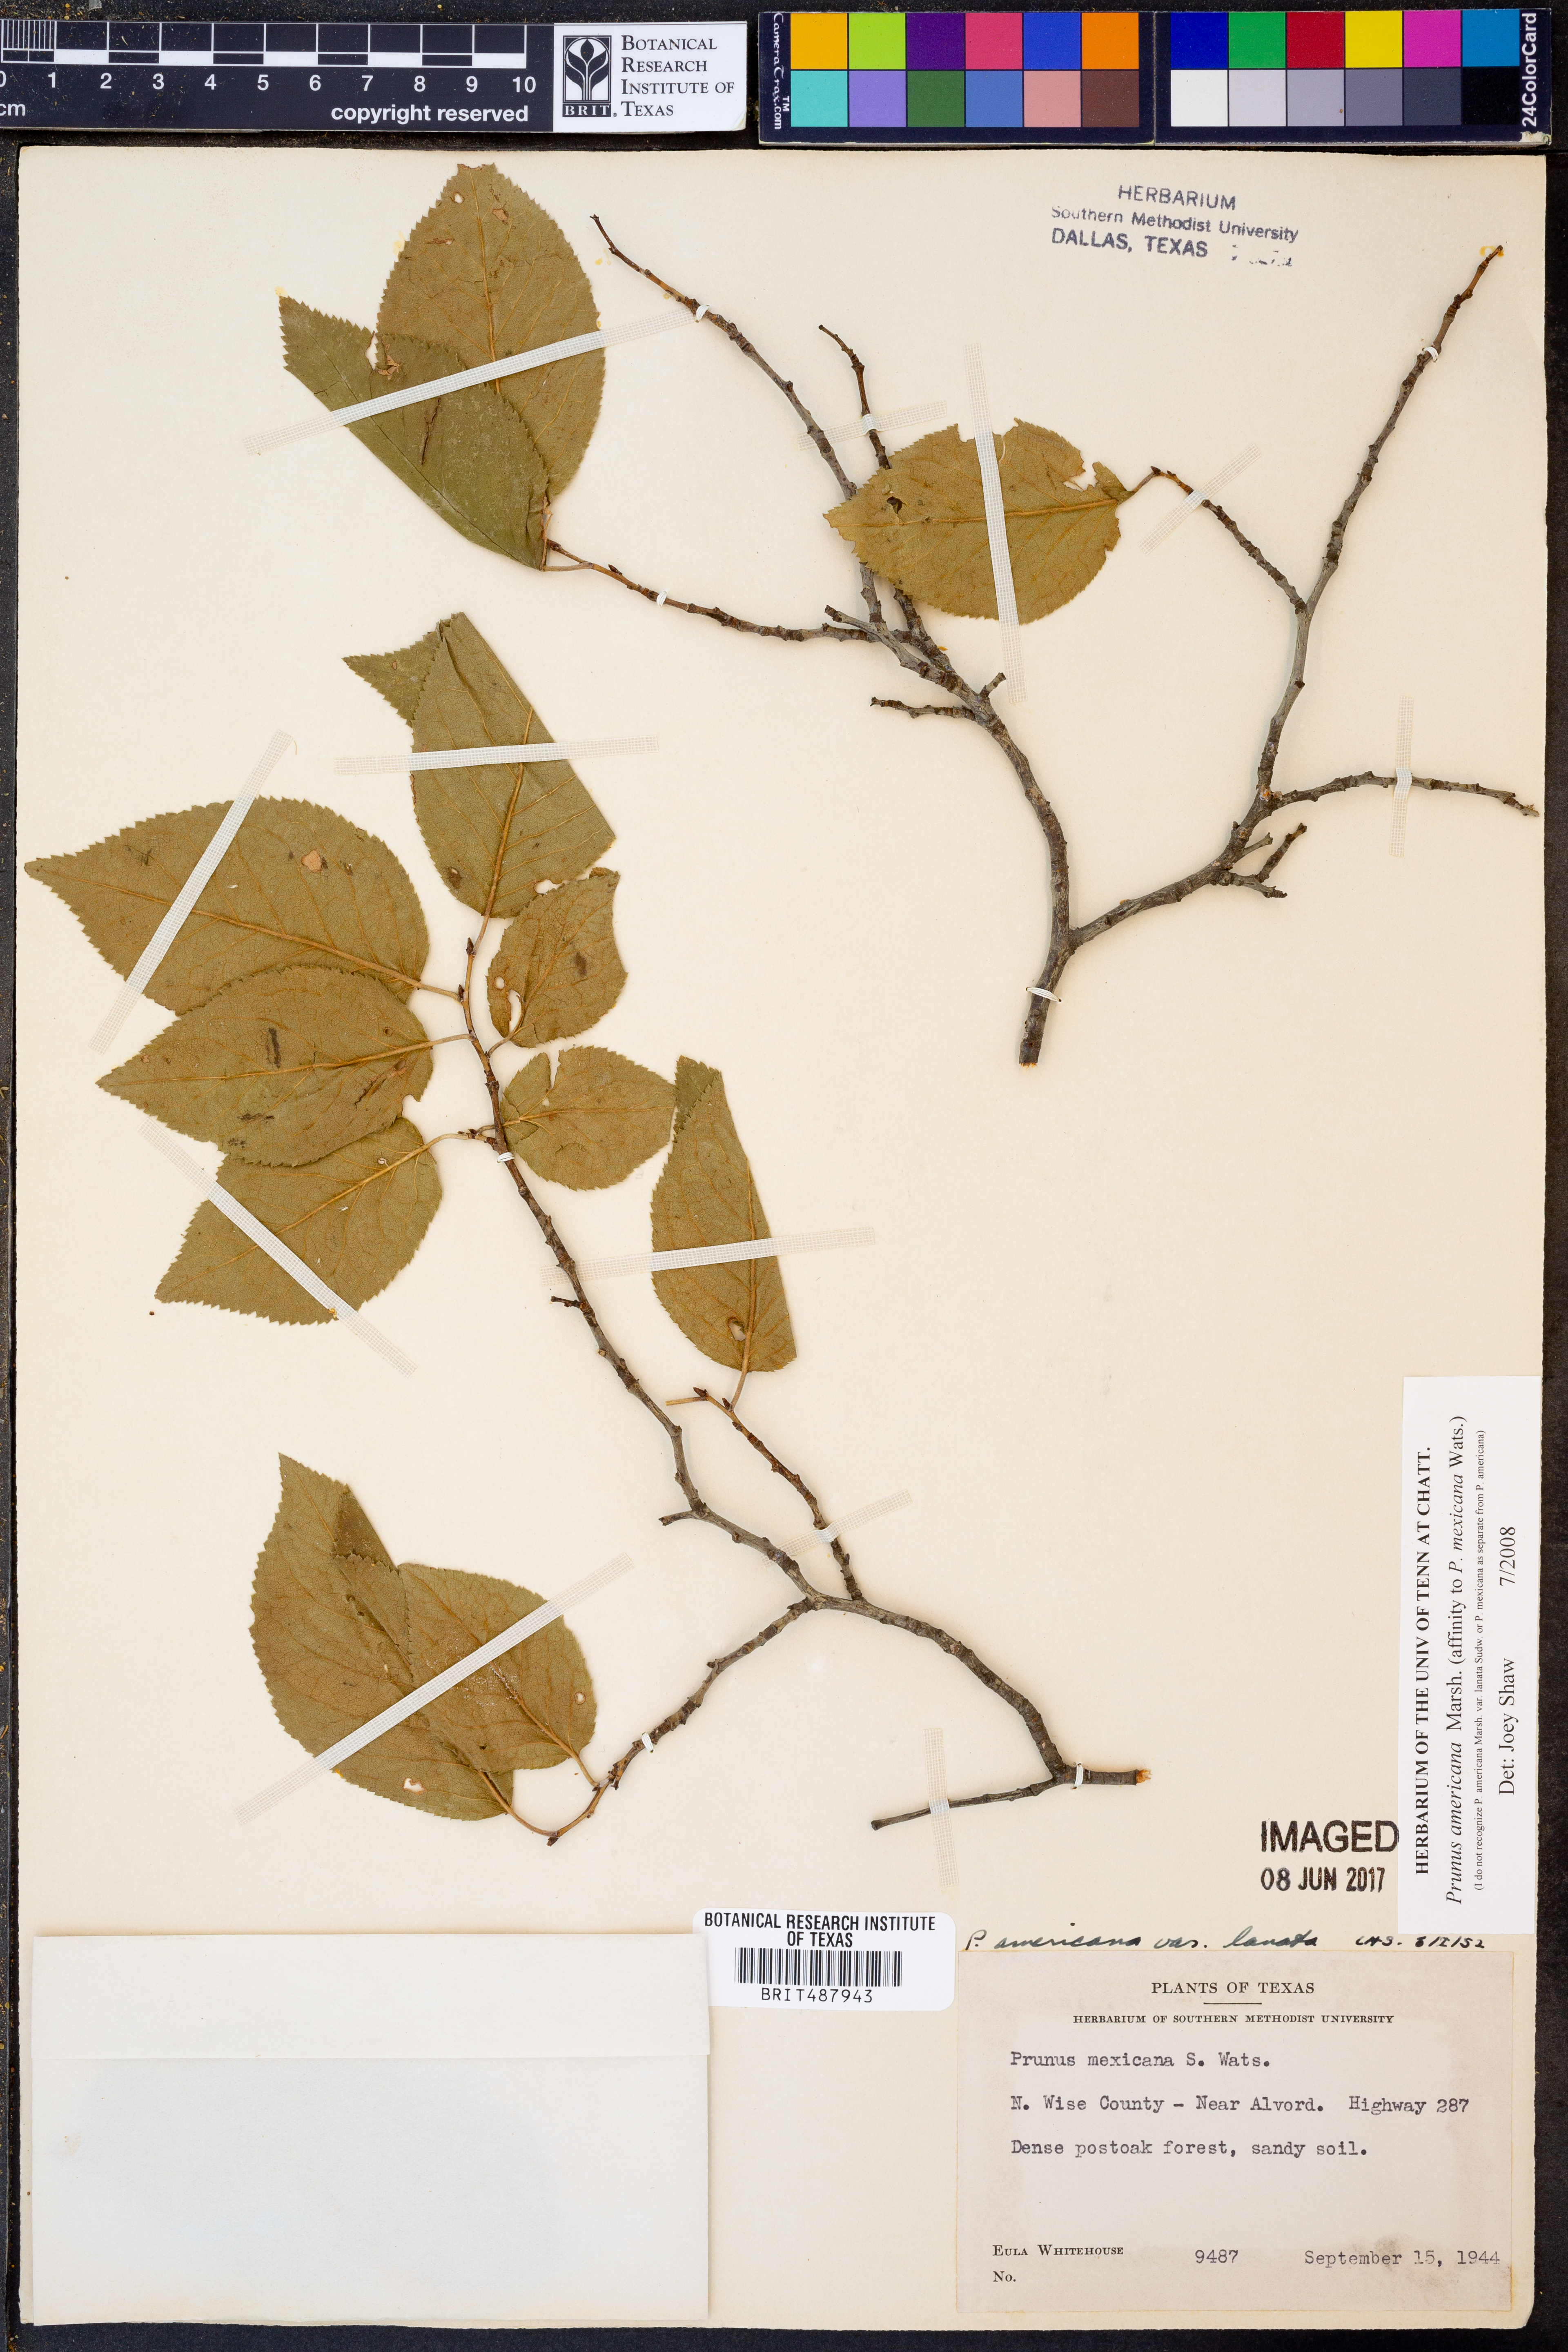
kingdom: Plantae
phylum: Tracheophyta
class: Magnoliopsida
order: Rosales
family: Rosaceae
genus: Prunus
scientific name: Prunus americana
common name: American plum
